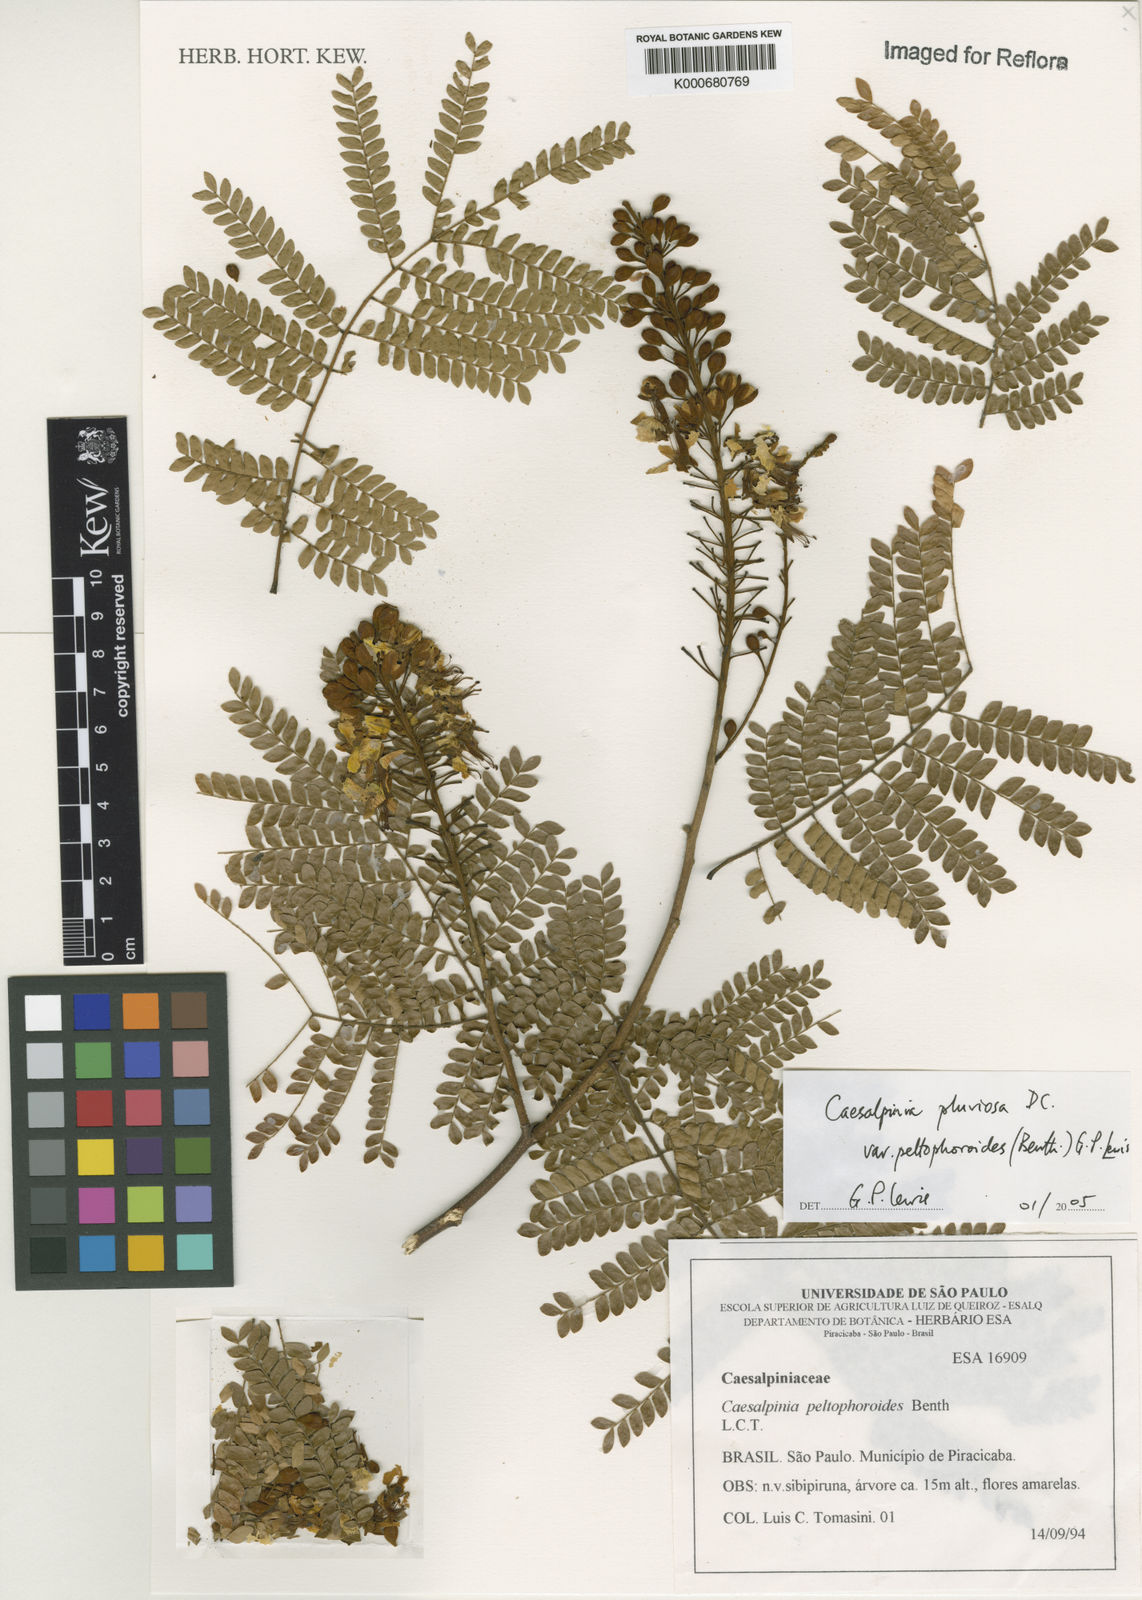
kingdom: Plantae
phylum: Tracheophyta
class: Magnoliopsida
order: Fabales
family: Fabaceae
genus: Cenostigma
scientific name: Cenostigma pluviosum
